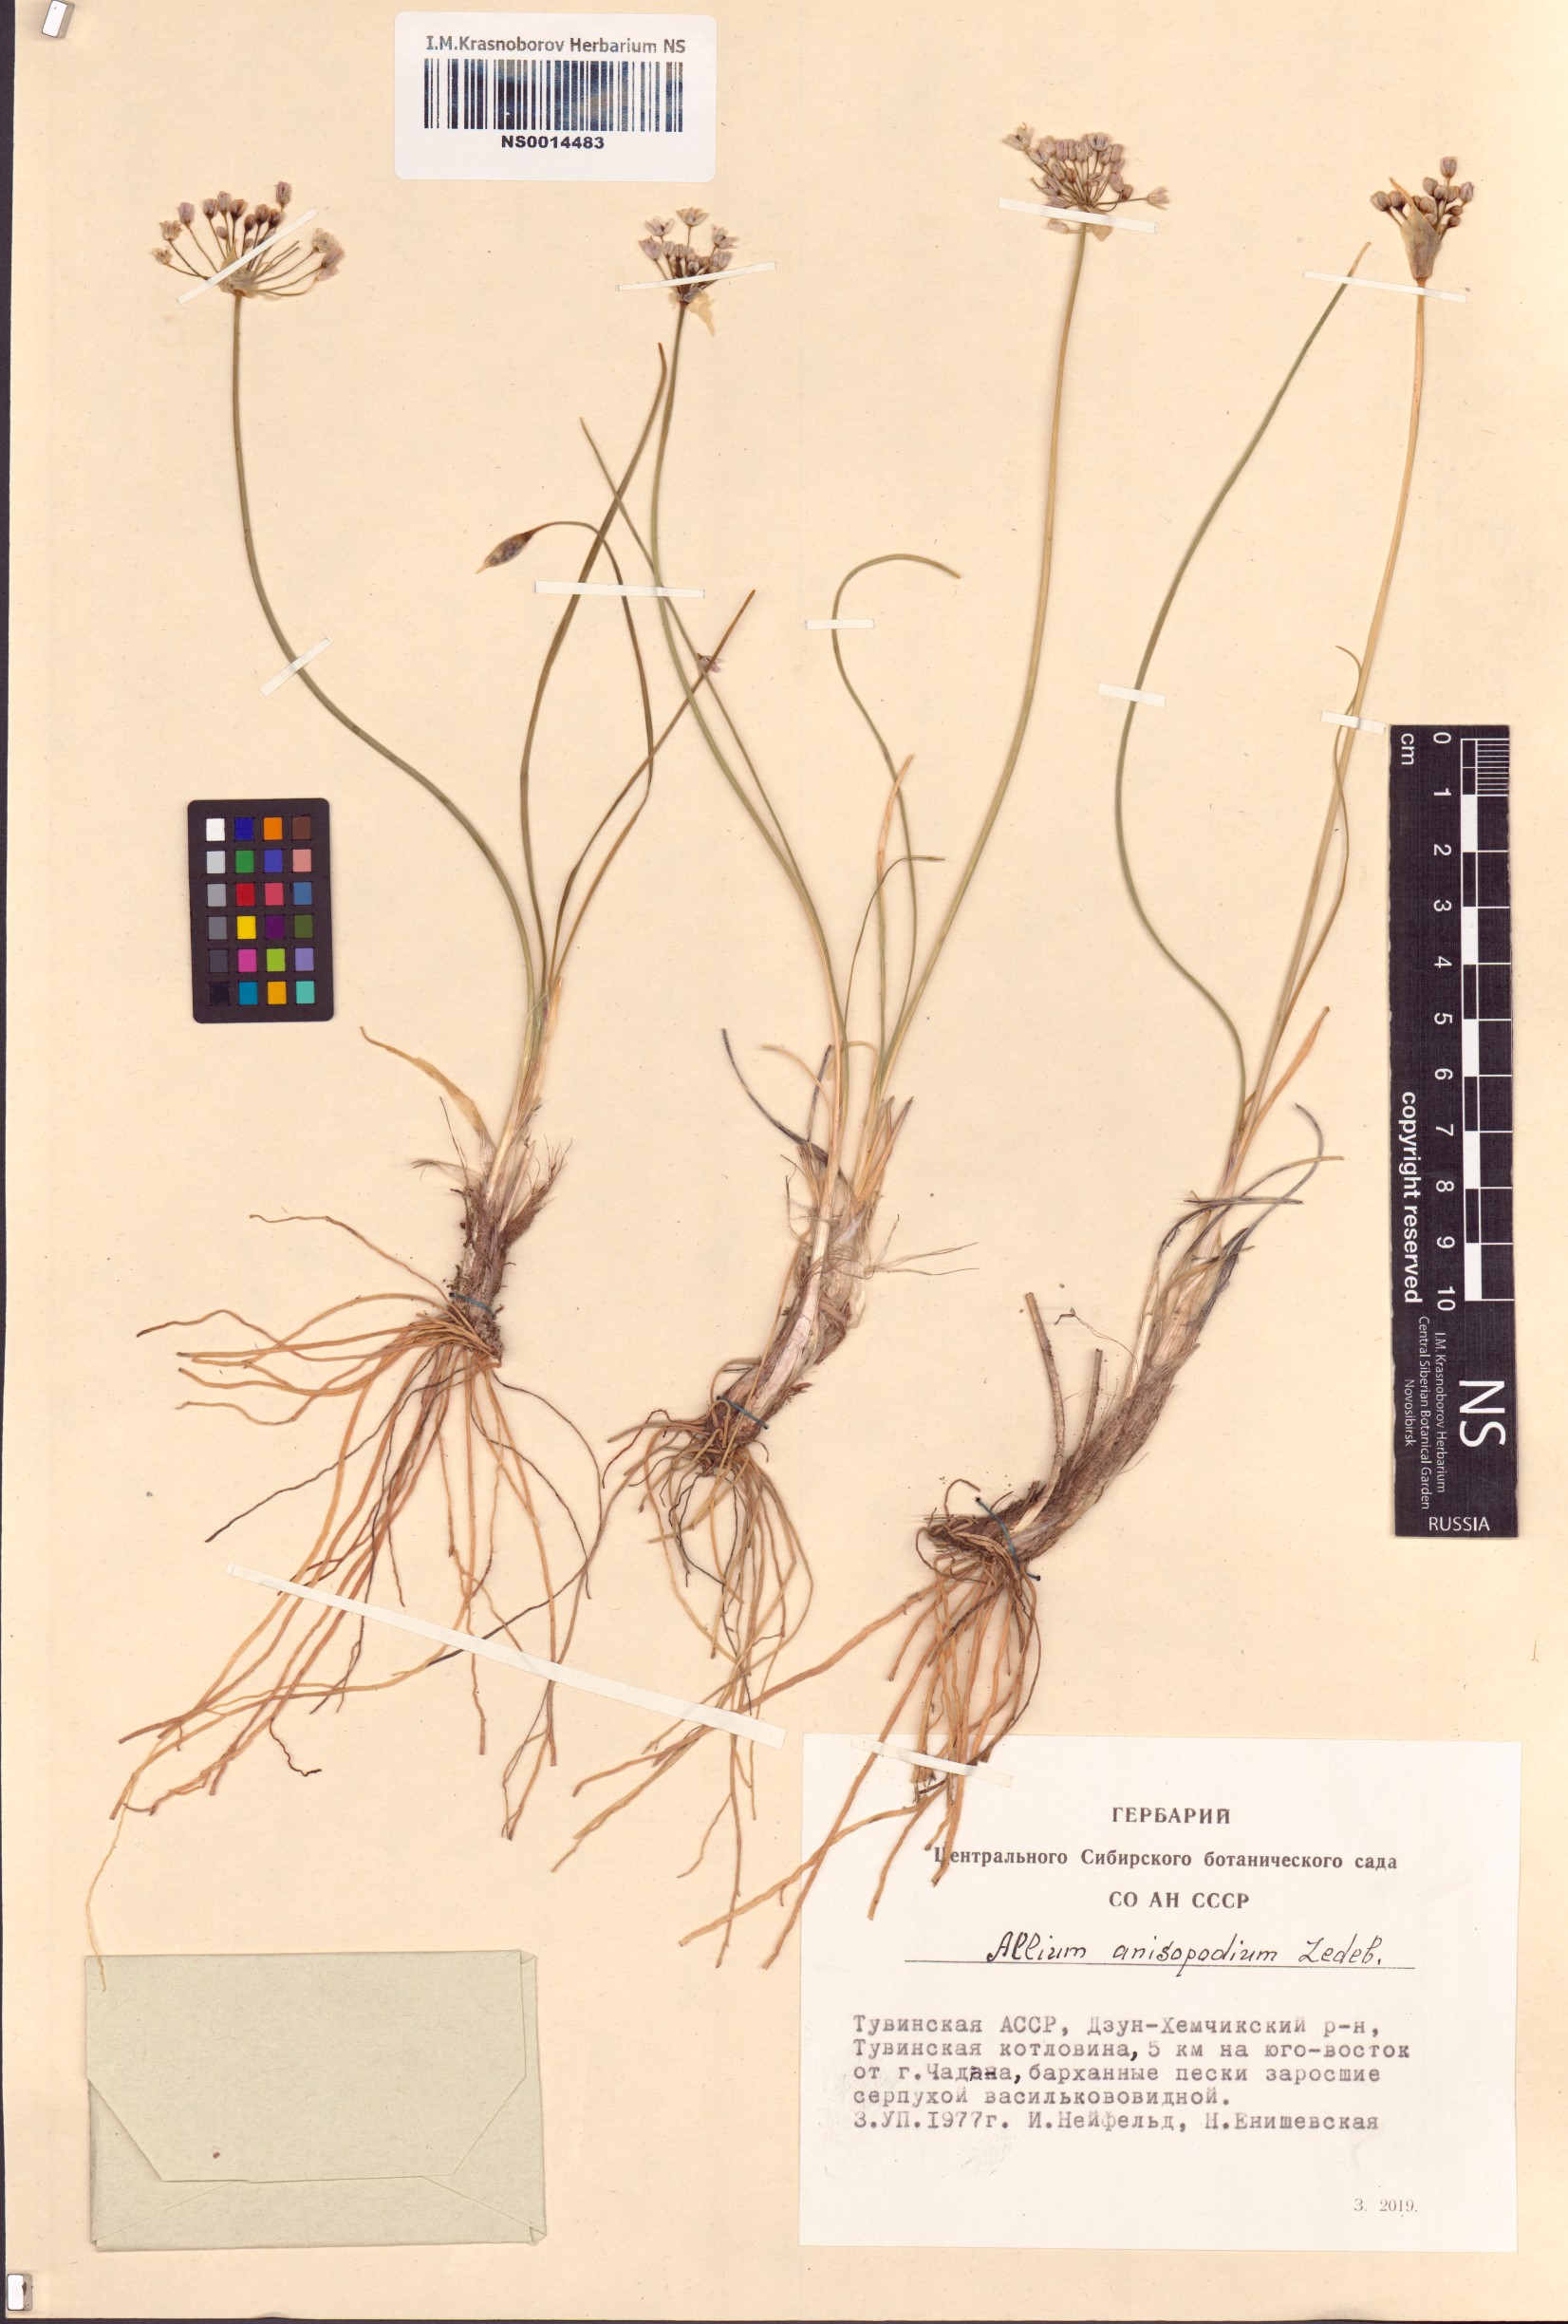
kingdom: Plantae
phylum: Tracheophyta
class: Liliopsida
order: Asparagales
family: Amaryllidaceae
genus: Allium
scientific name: Allium anisopodium
